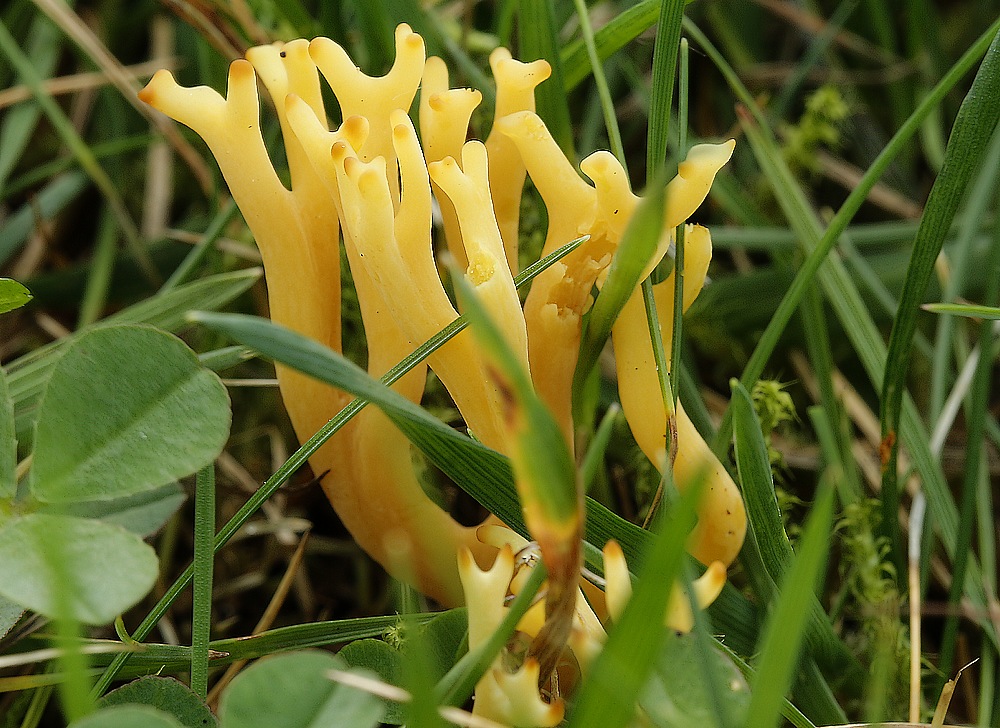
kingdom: Fungi
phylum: Basidiomycota
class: Agaricomycetes
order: Agaricales
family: Clavariaceae
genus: Clavulinopsis
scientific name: Clavulinopsis corniculata
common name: eng-køllesvamp
